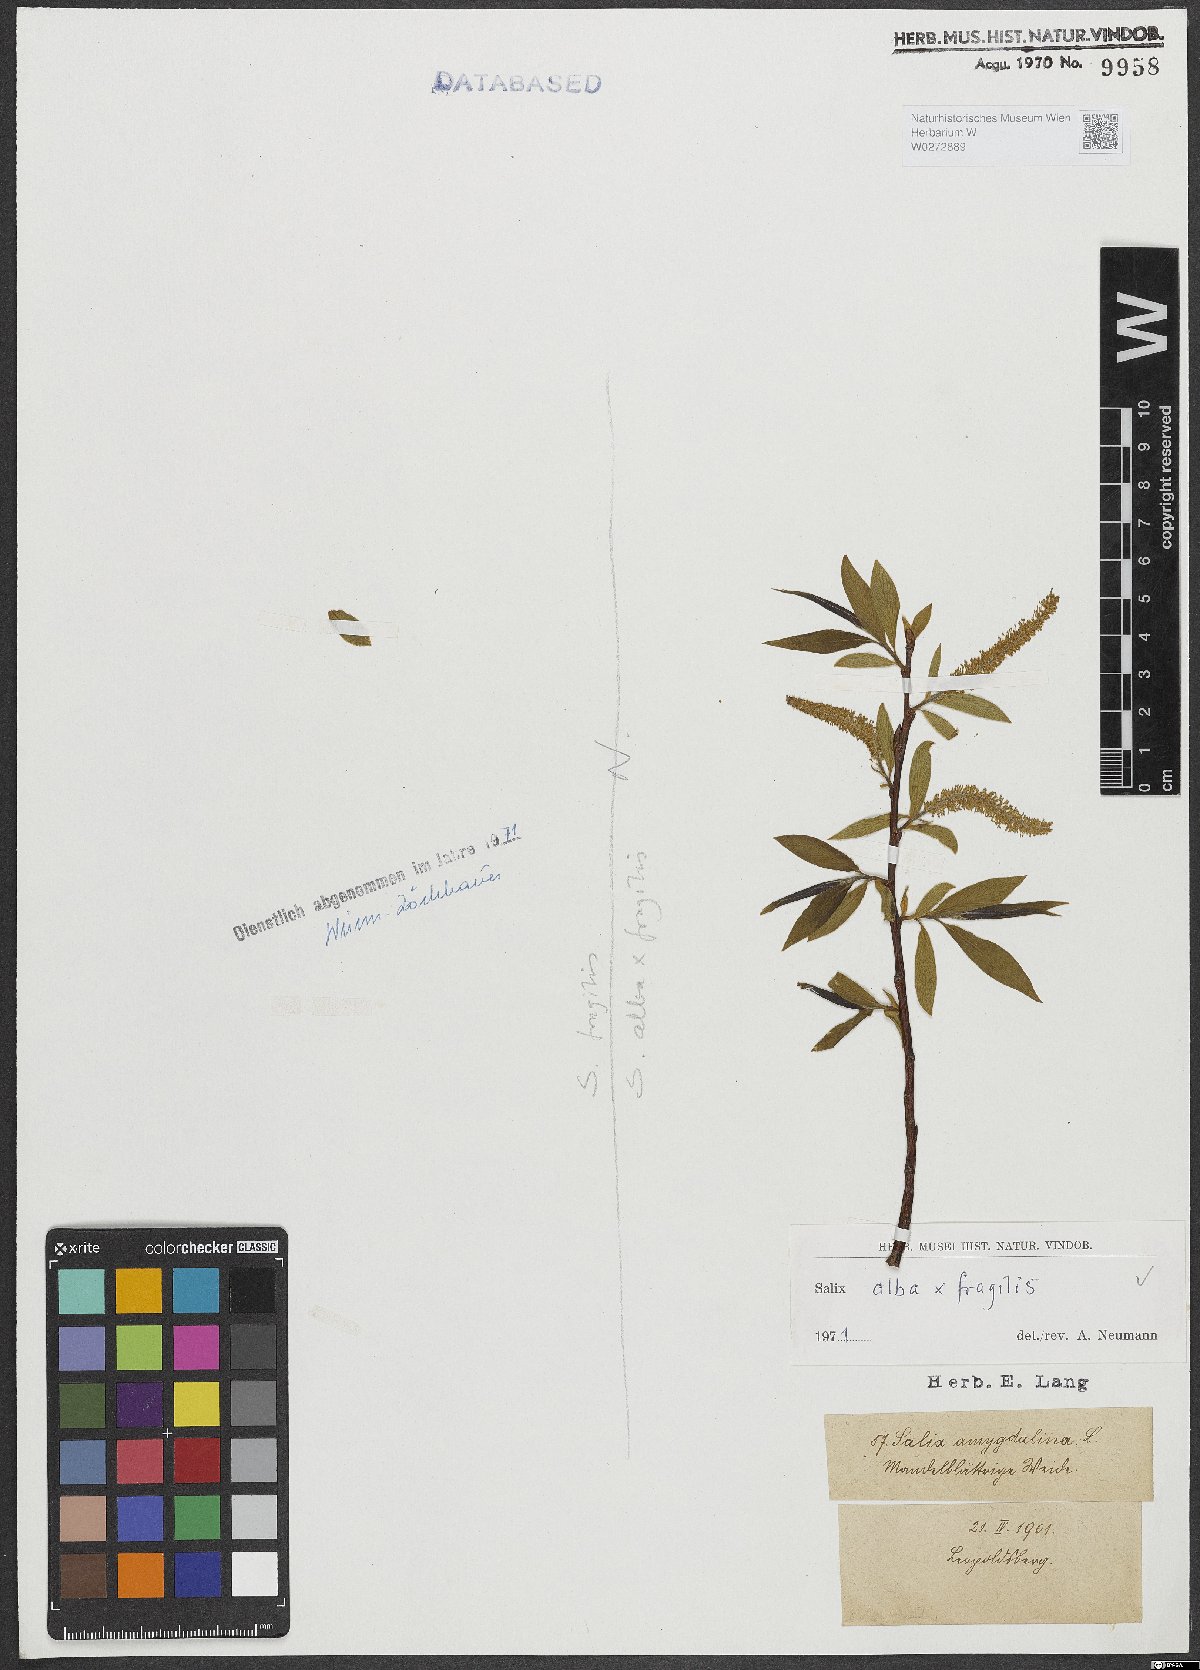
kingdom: Plantae
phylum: Tracheophyta
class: Magnoliopsida
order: Malpighiales
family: Salicaceae
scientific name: Salicaceae
